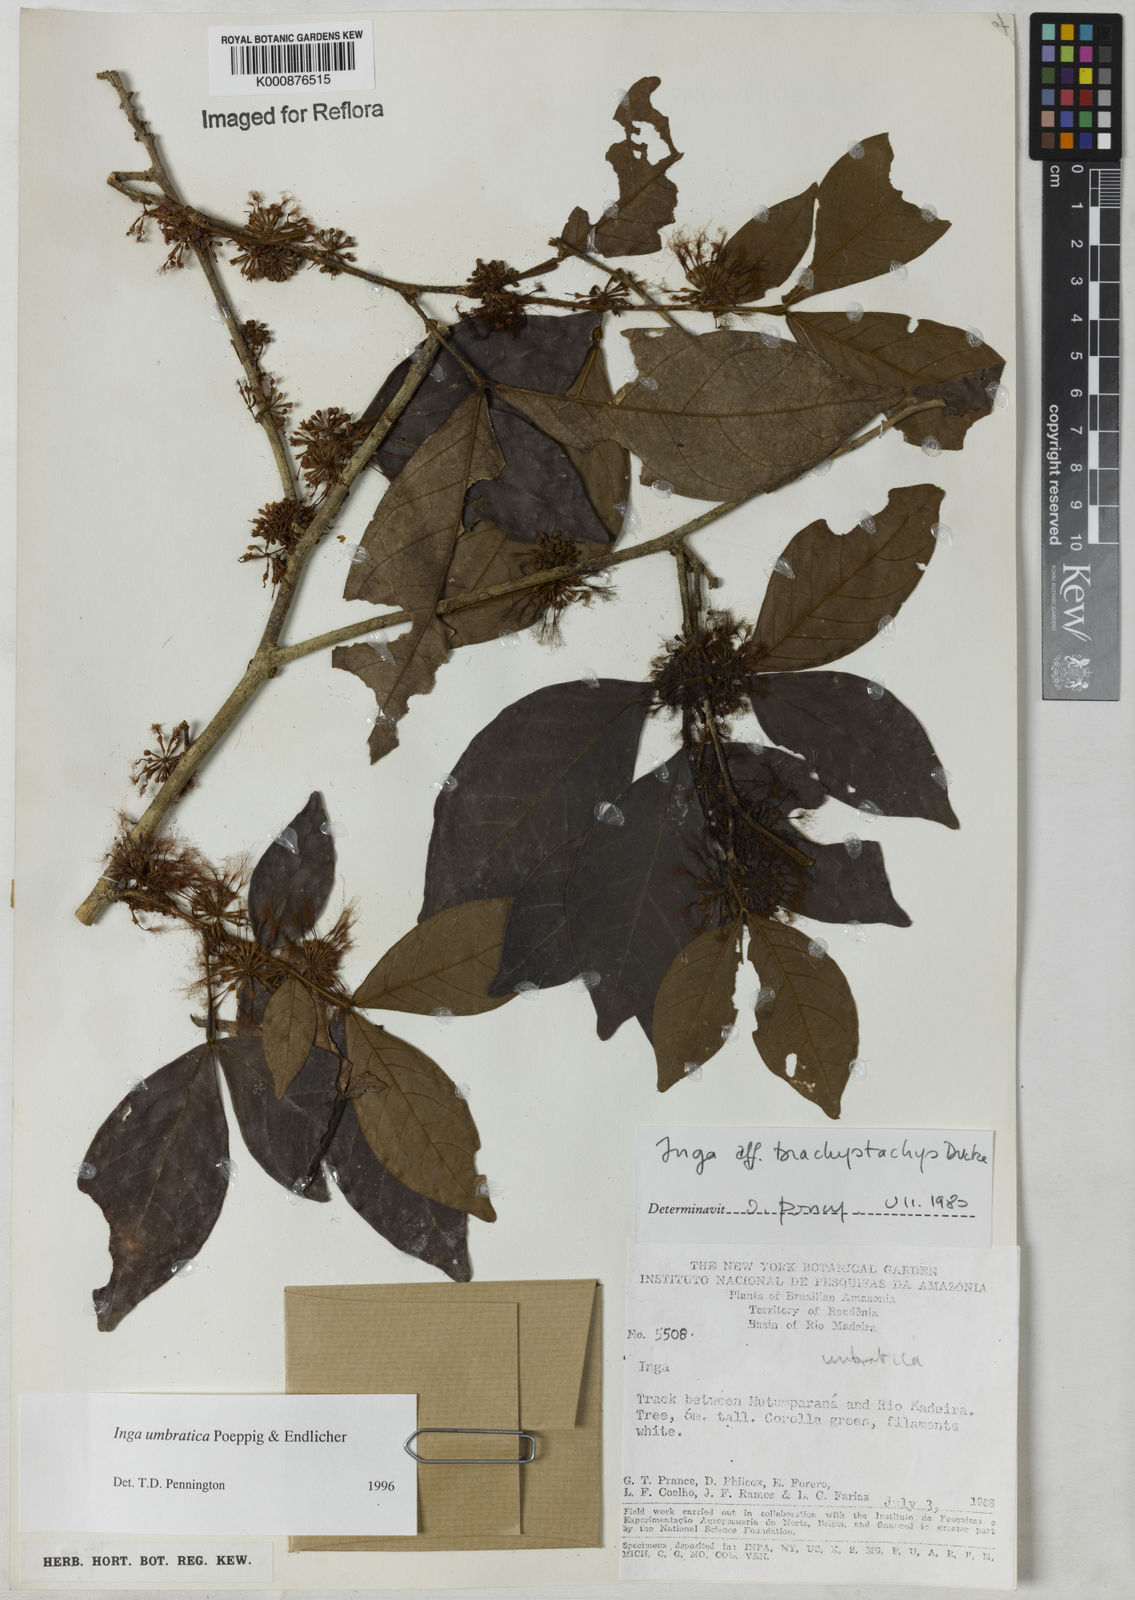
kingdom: Plantae
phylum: Tracheophyta
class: Magnoliopsida
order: Fabales
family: Fabaceae
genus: Inga
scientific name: Inga umbratica
